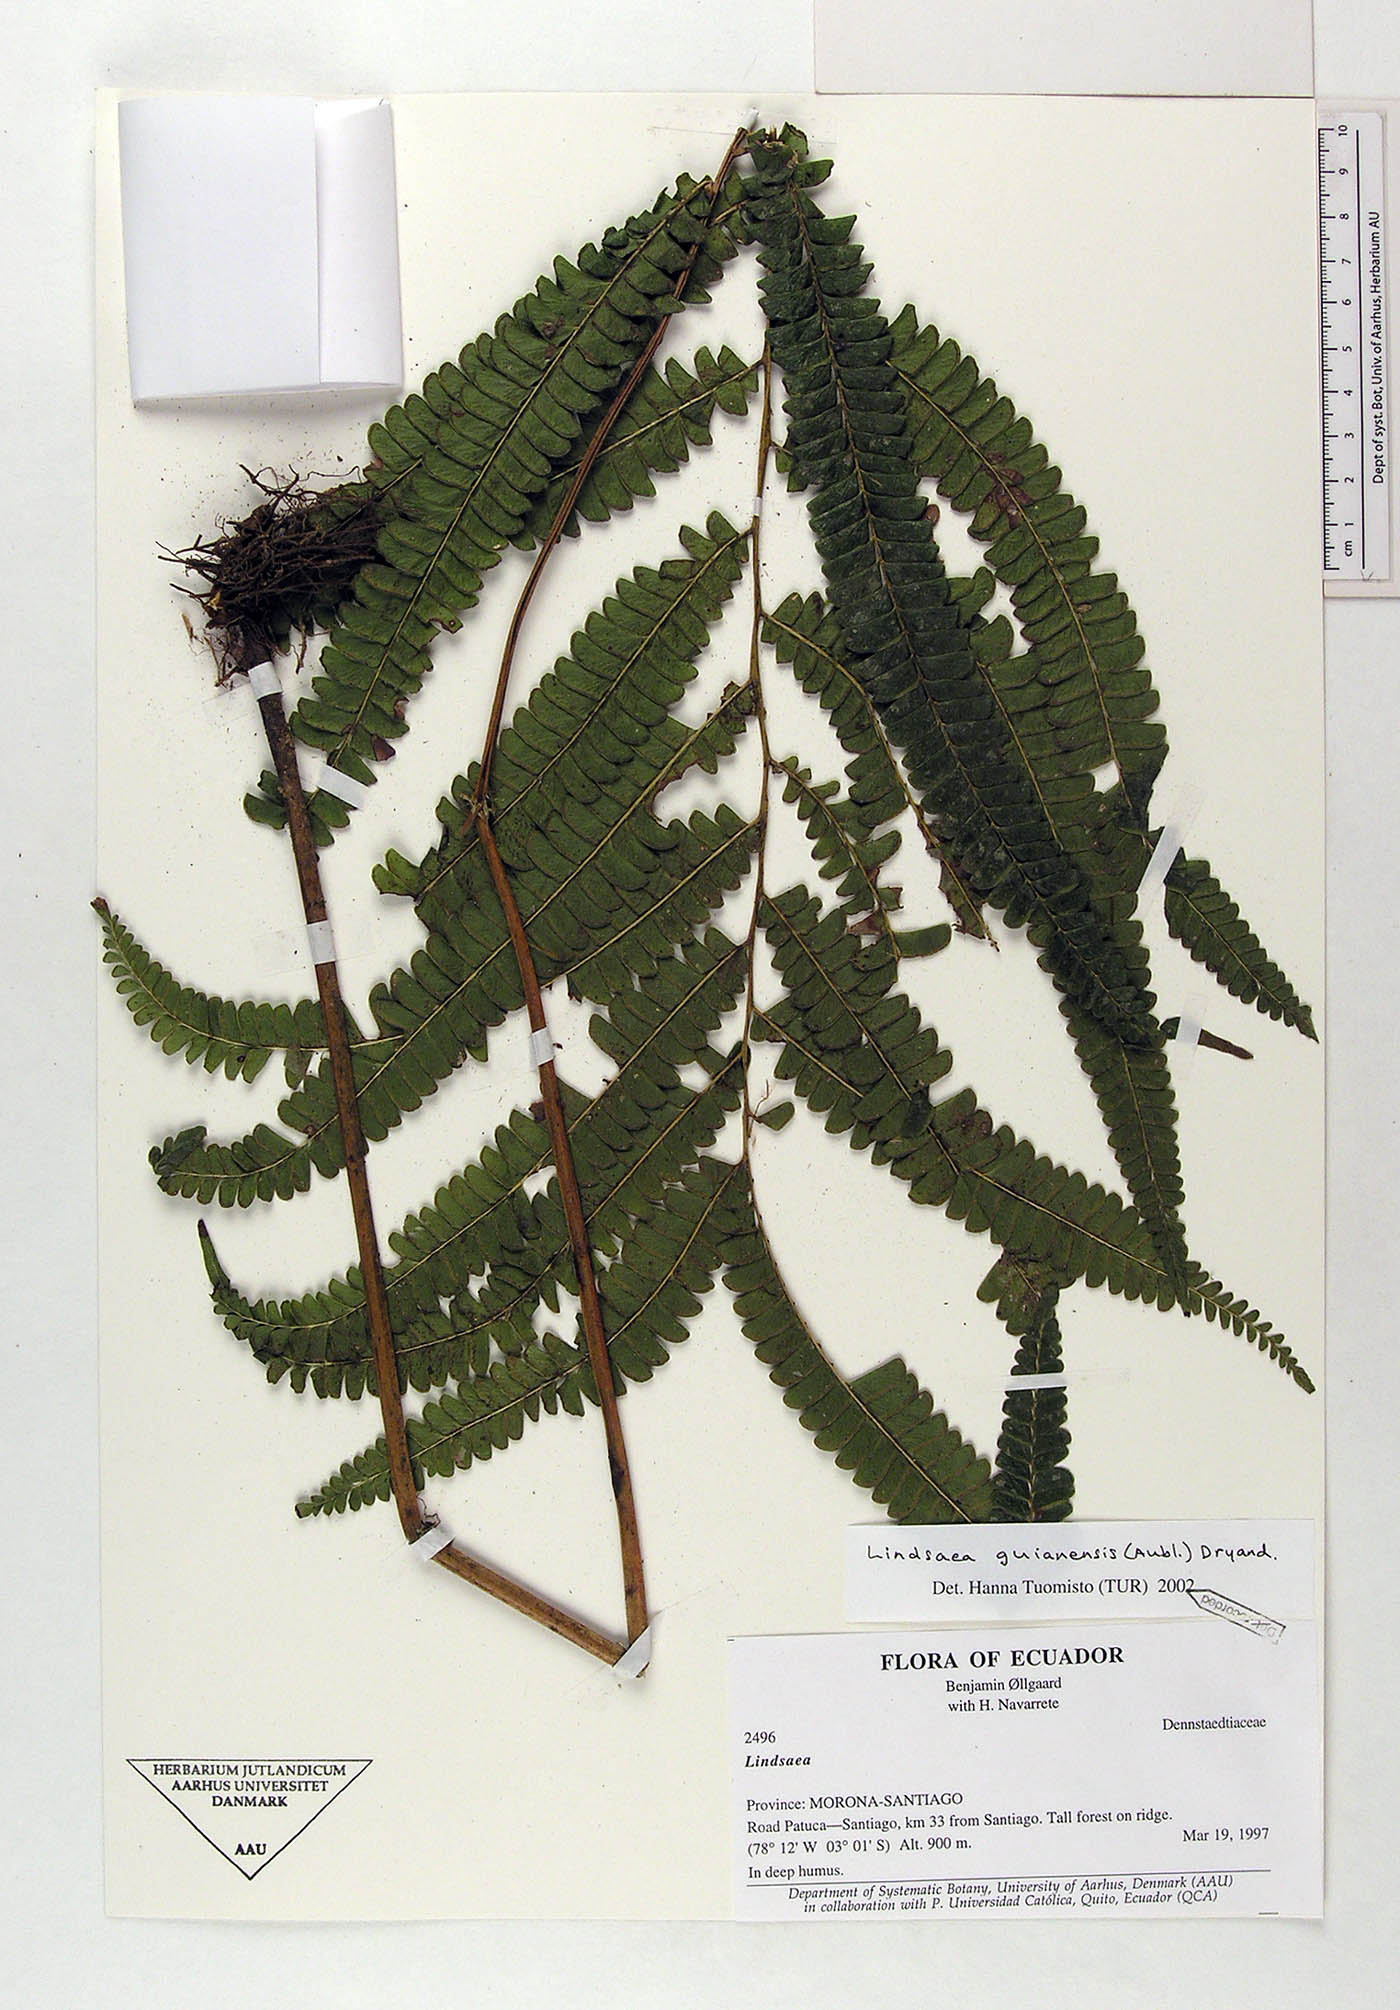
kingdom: Plantae
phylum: Tracheophyta
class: Polypodiopsida
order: Polypodiales
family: Lindsaeaceae
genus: Lindsaea
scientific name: Lindsaea guianensis
